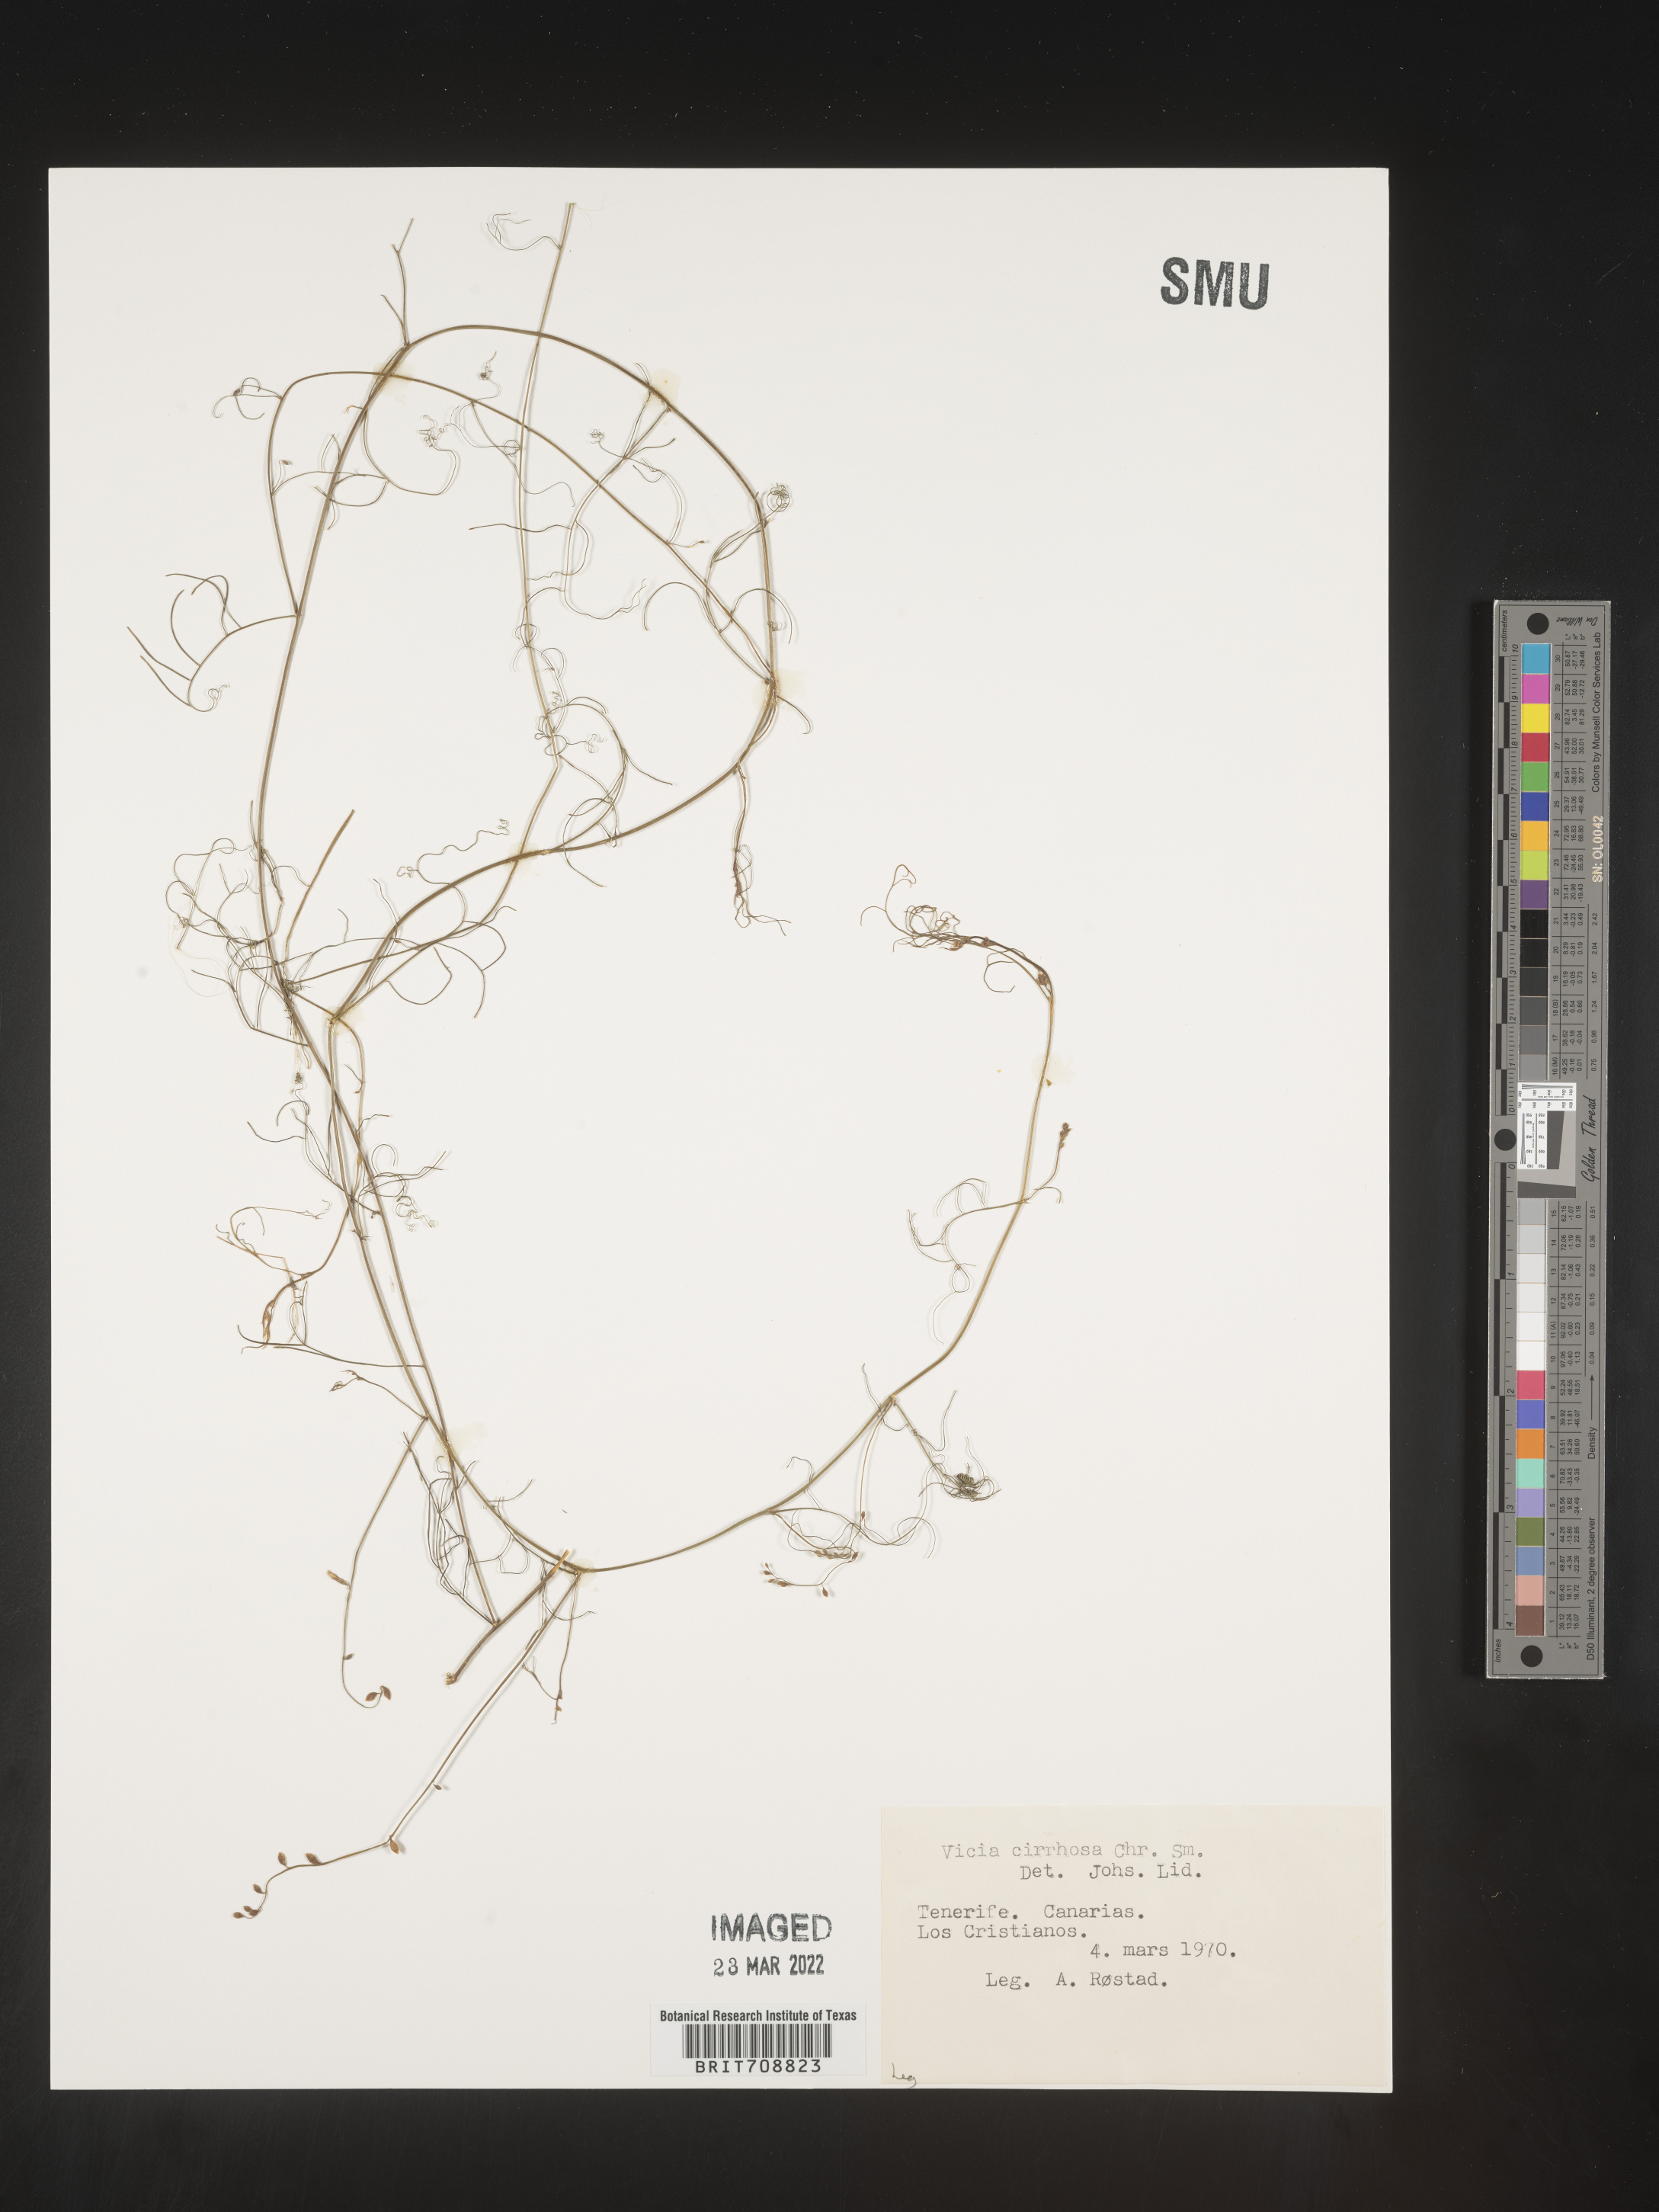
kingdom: Plantae
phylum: Tracheophyta
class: Magnoliopsida
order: Fabales
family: Fabaceae
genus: Vicia
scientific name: Vicia
